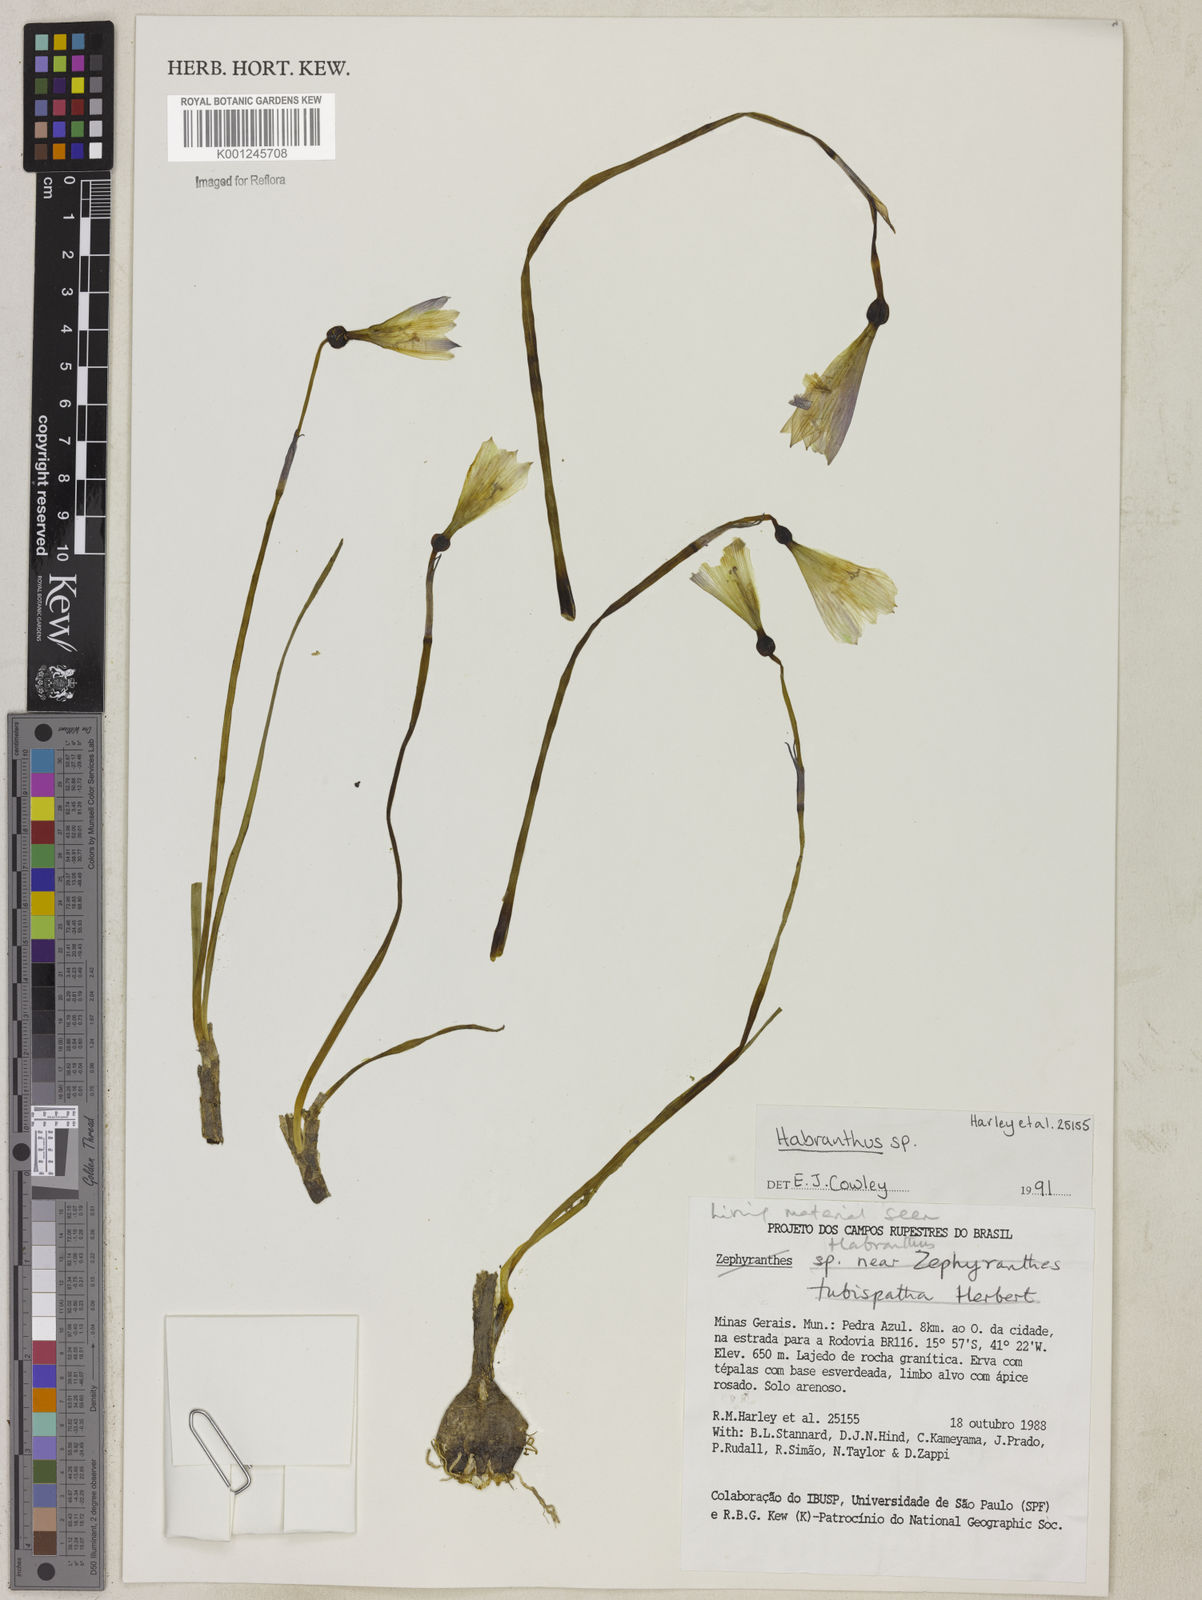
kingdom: Plantae
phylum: Tracheophyta
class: Liliopsida
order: Asparagales
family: Amaryllidaceae
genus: Zephyranthes
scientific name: Zephyranthes
